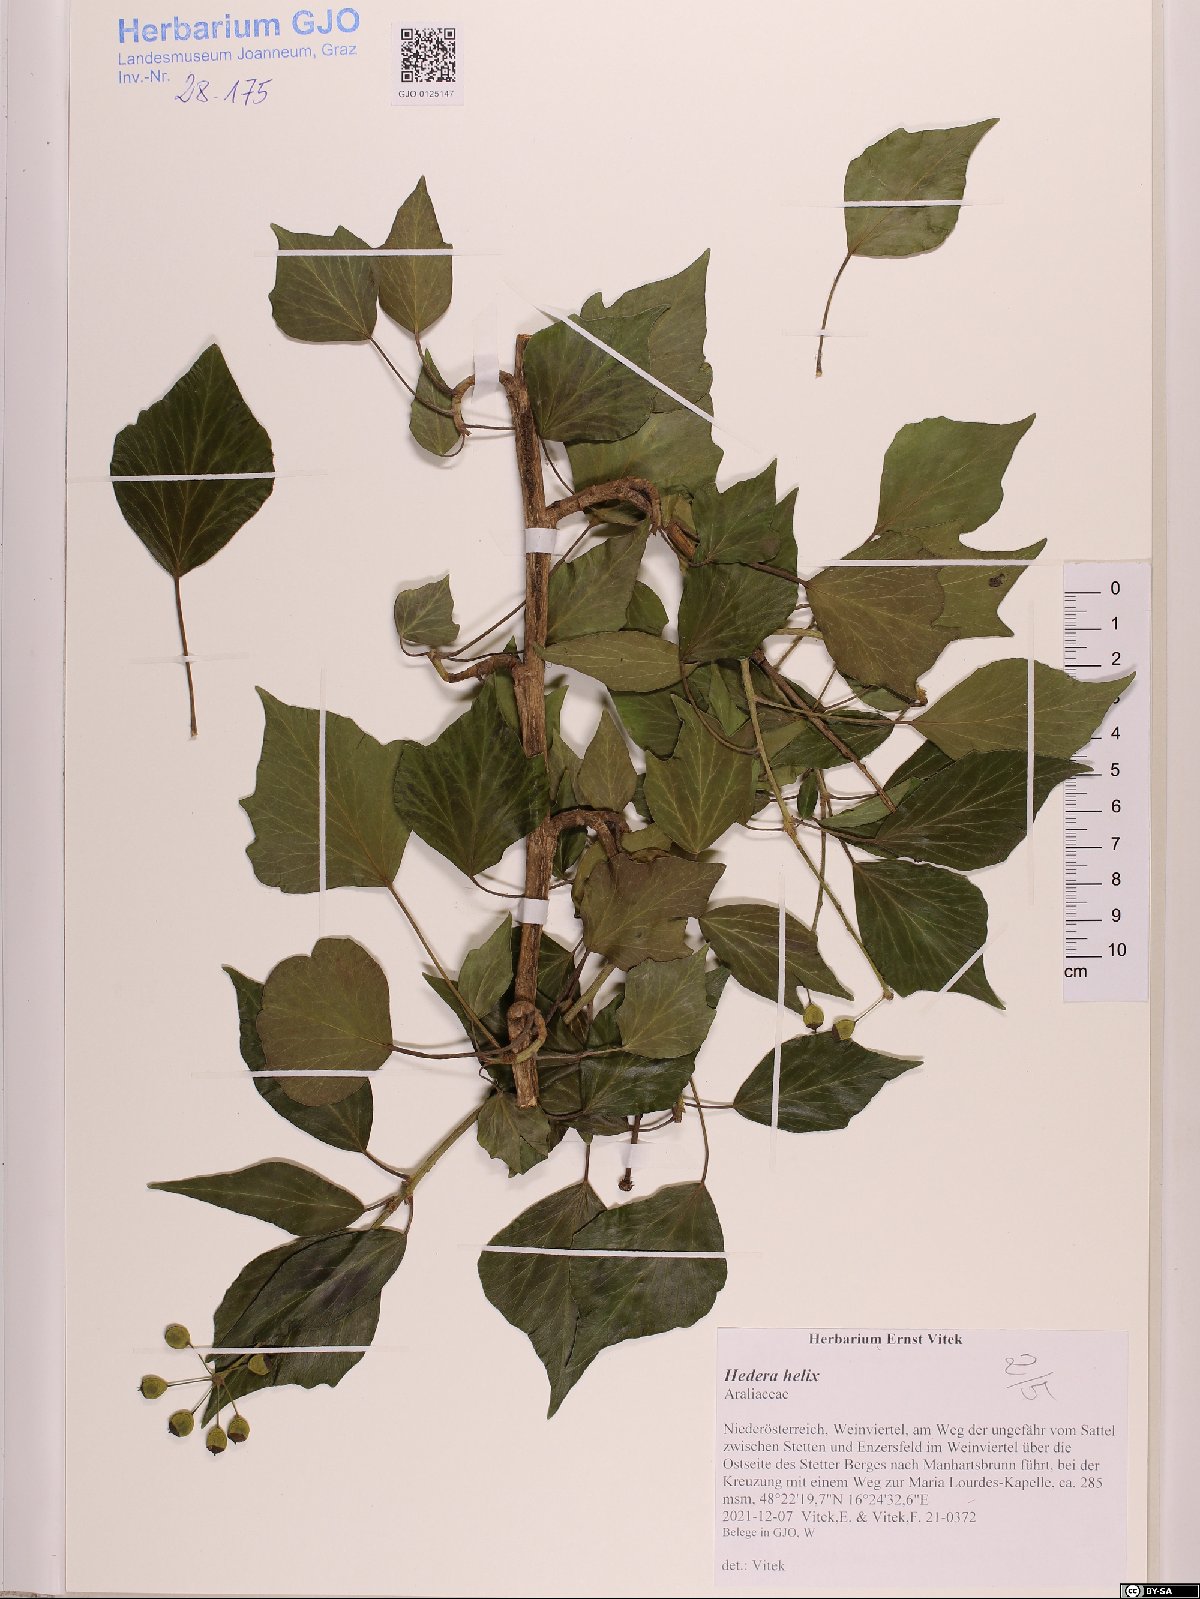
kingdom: Plantae
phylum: Tracheophyta
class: Magnoliopsida
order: Apiales
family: Araliaceae
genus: Hedera
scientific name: Hedera helix
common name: Ivy
